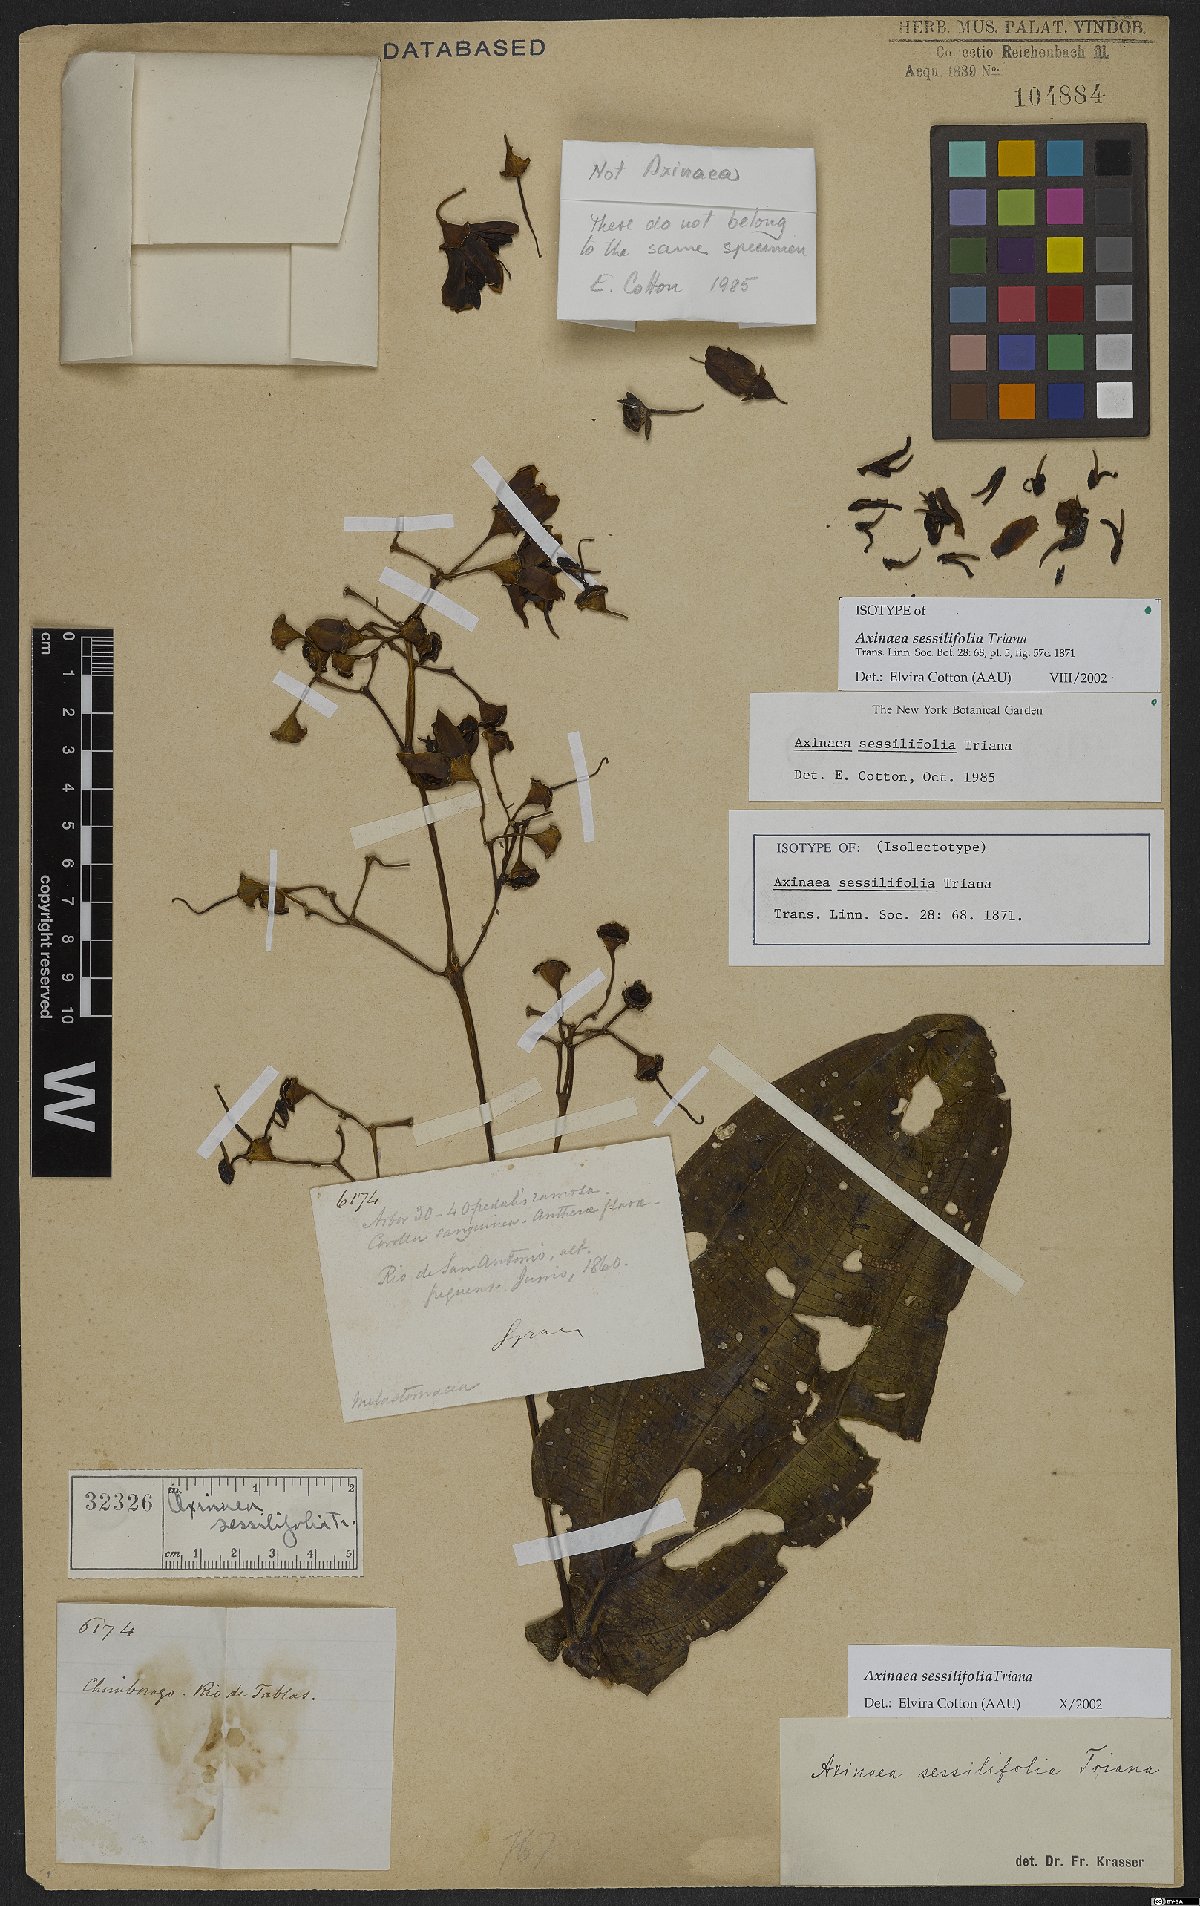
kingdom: Plantae
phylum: Tracheophyta
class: Magnoliopsida
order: Myrtales
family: Melastomataceae
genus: Axinaea
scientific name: Axinaea sessilifolia
